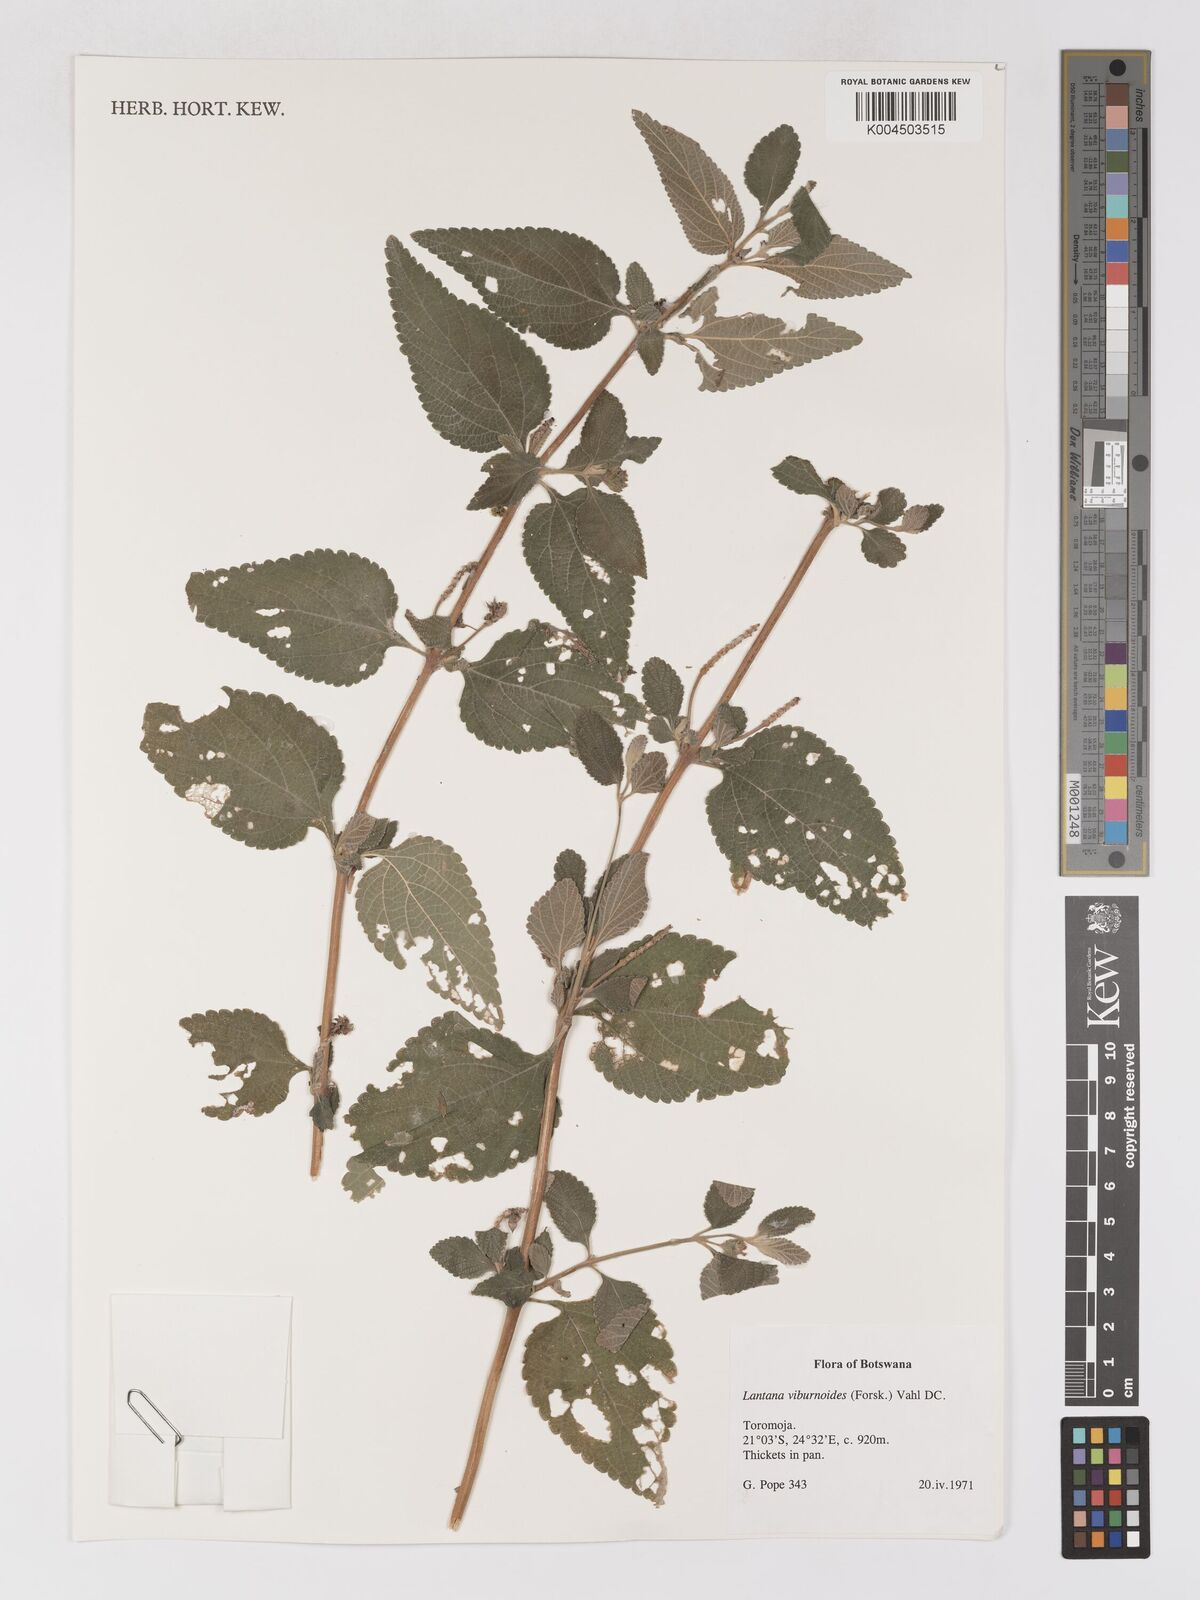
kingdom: Plantae
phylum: Tracheophyta
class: Magnoliopsida
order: Lamiales
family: Verbenaceae
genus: Lantana
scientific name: Lantana
